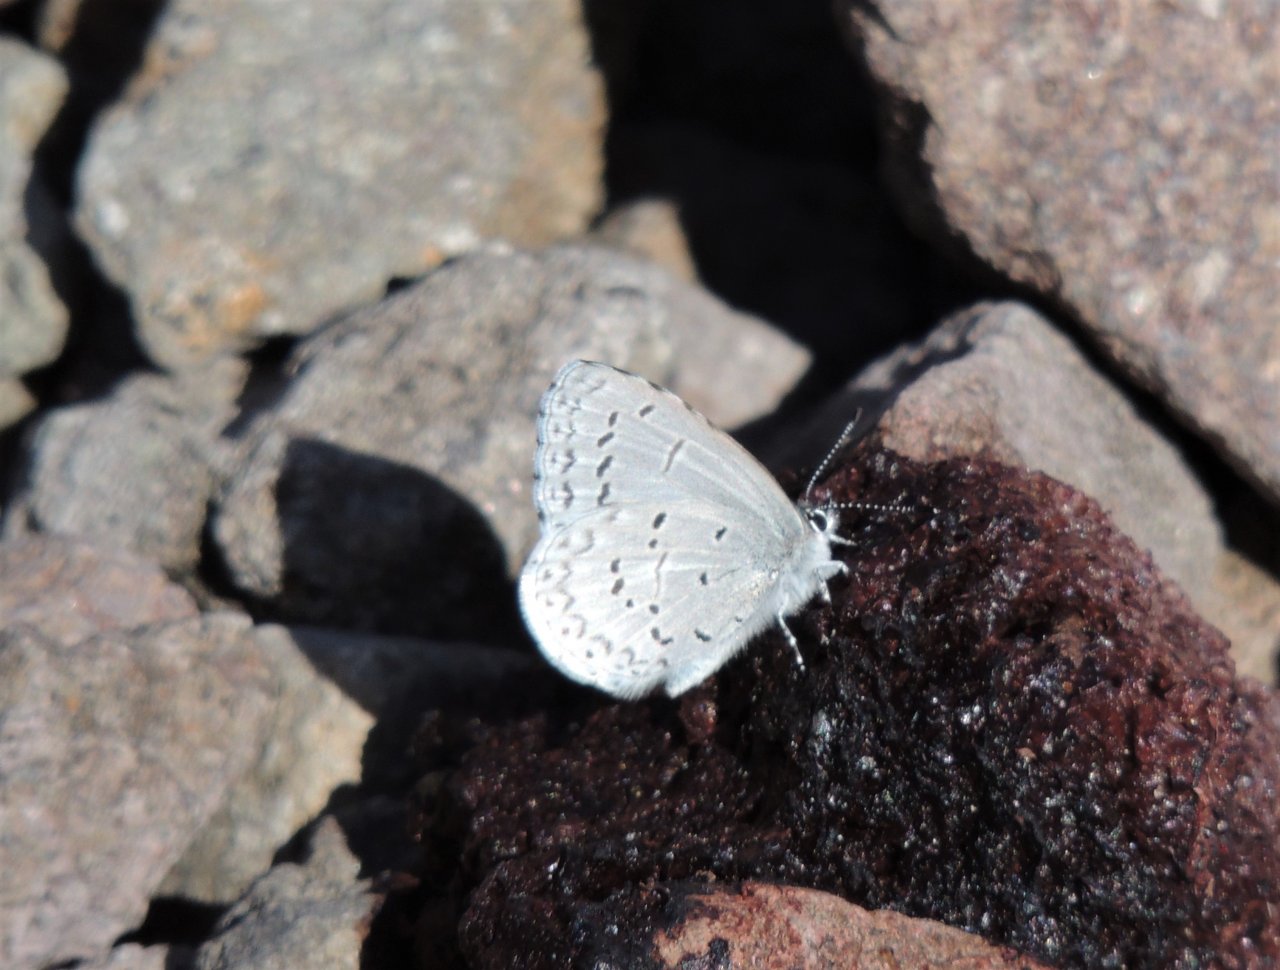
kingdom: Animalia
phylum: Arthropoda
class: Insecta
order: Lepidoptera
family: Lycaenidae
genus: Celastrina
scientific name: Celastrina ladon
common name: Echo Azure
